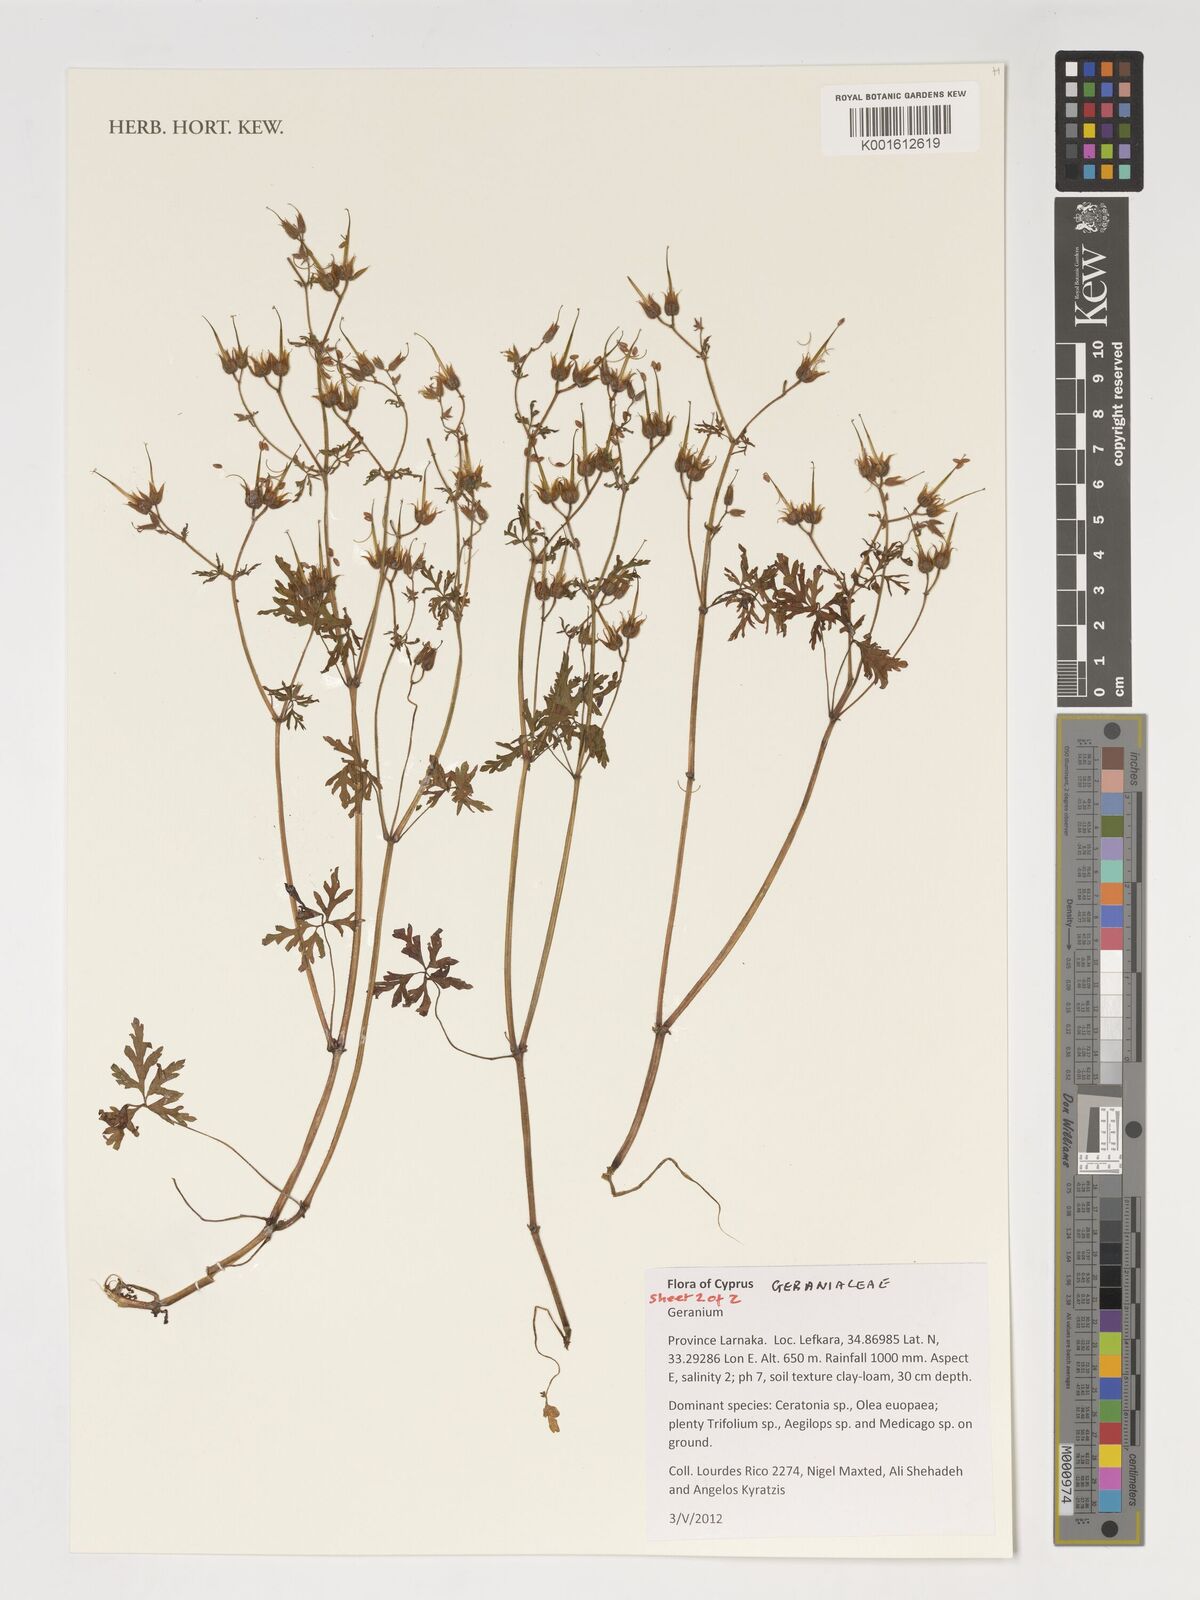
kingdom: Plantae
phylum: Tracheophyta
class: Magnoliopsida
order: Geraniales
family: Geraniaceae
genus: Geranium
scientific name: Geranium
